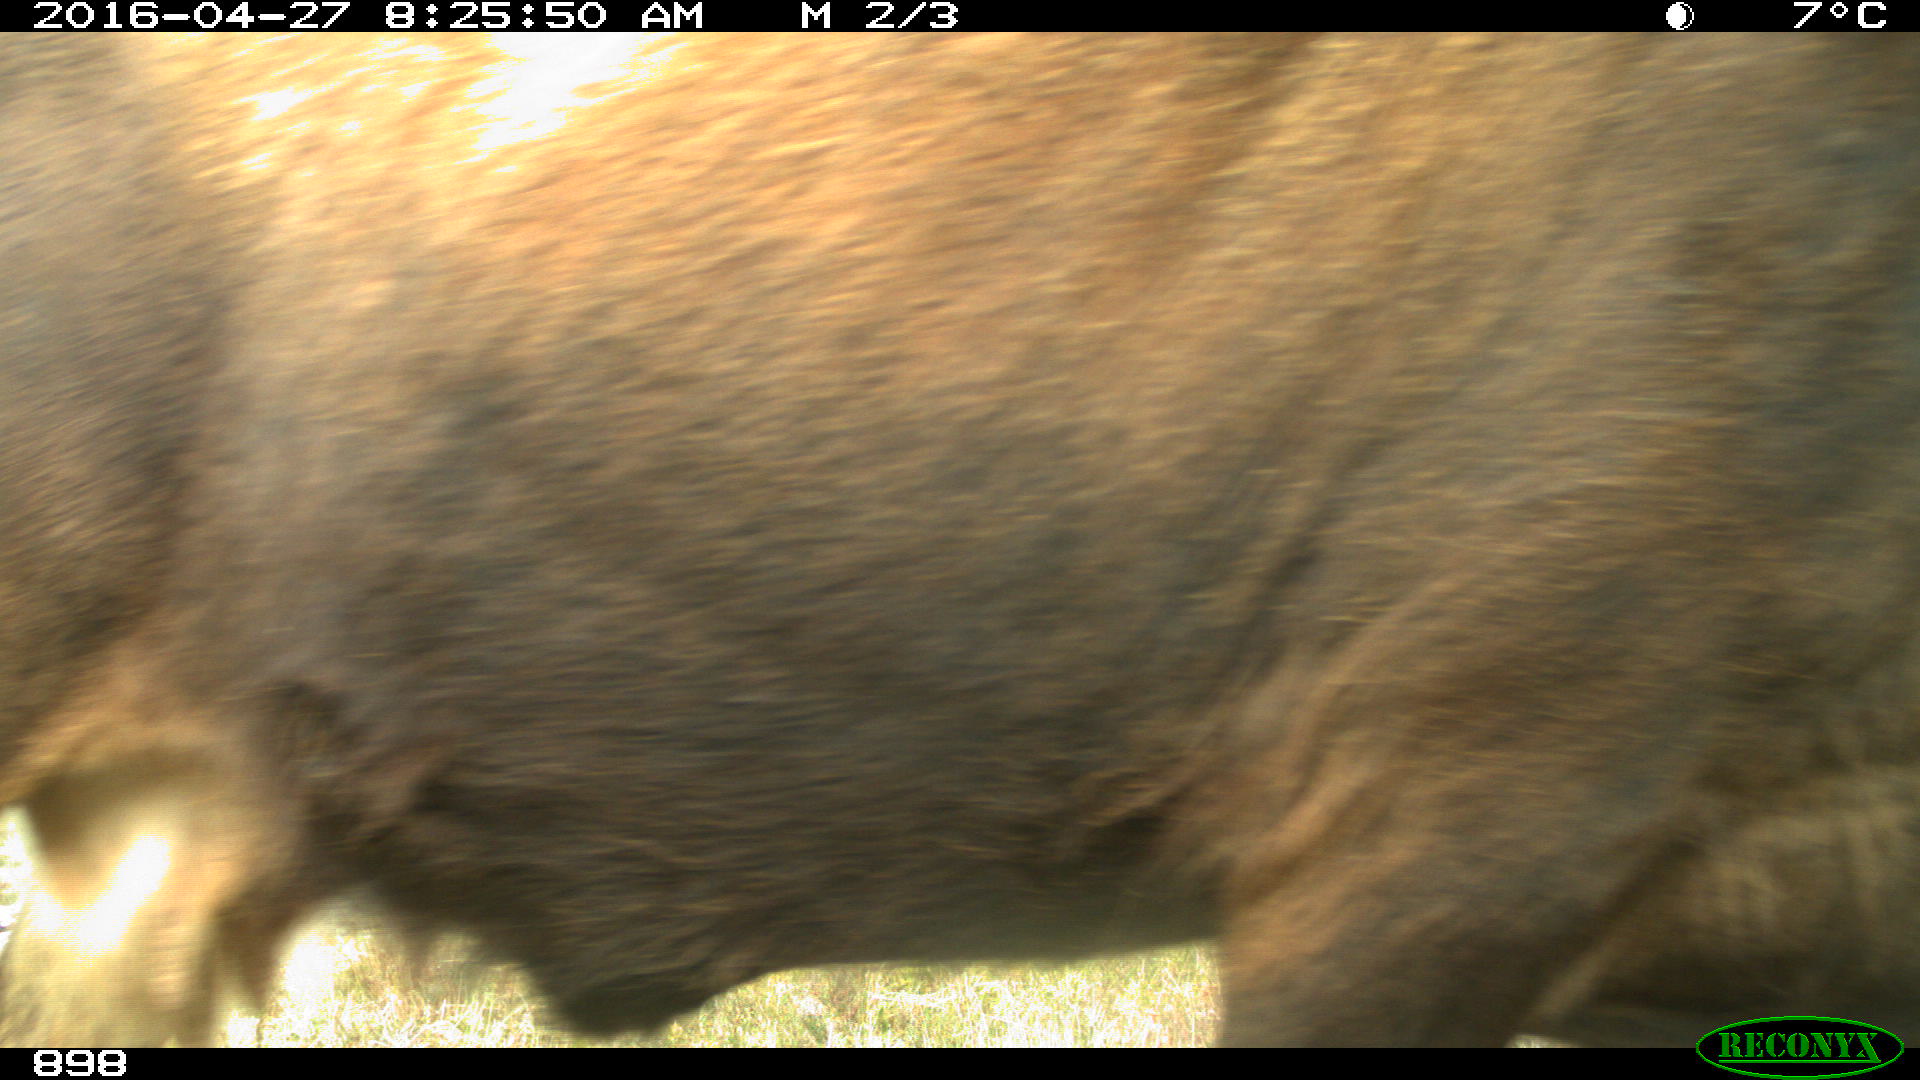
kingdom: Animalia
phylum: Chordata
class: Mammalia
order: Artiodactyla
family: Bovidae
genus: Bos
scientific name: Bos taurus
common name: Domesticated cattle
